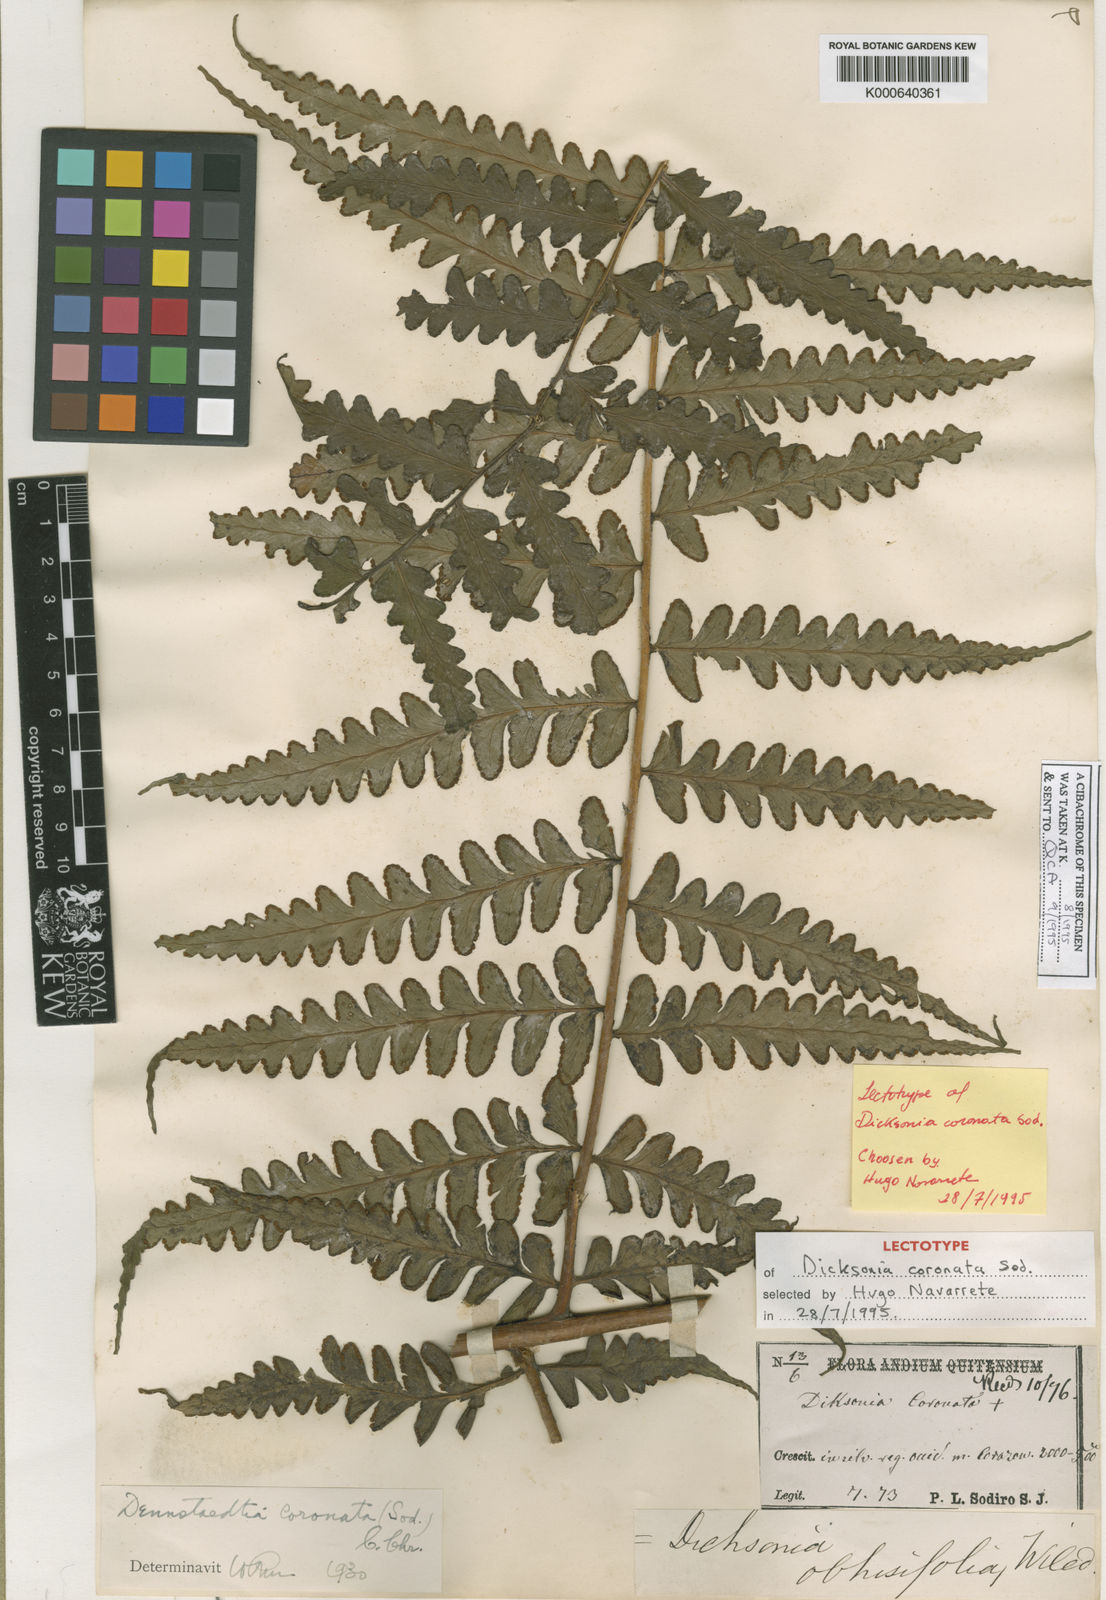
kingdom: Plantae
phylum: Tracheophyta
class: Polypodiopsida
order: Polypodiales
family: Dennstaedtiaceae
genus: Dennstaedtia
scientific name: Dennstaedtia arborescens
